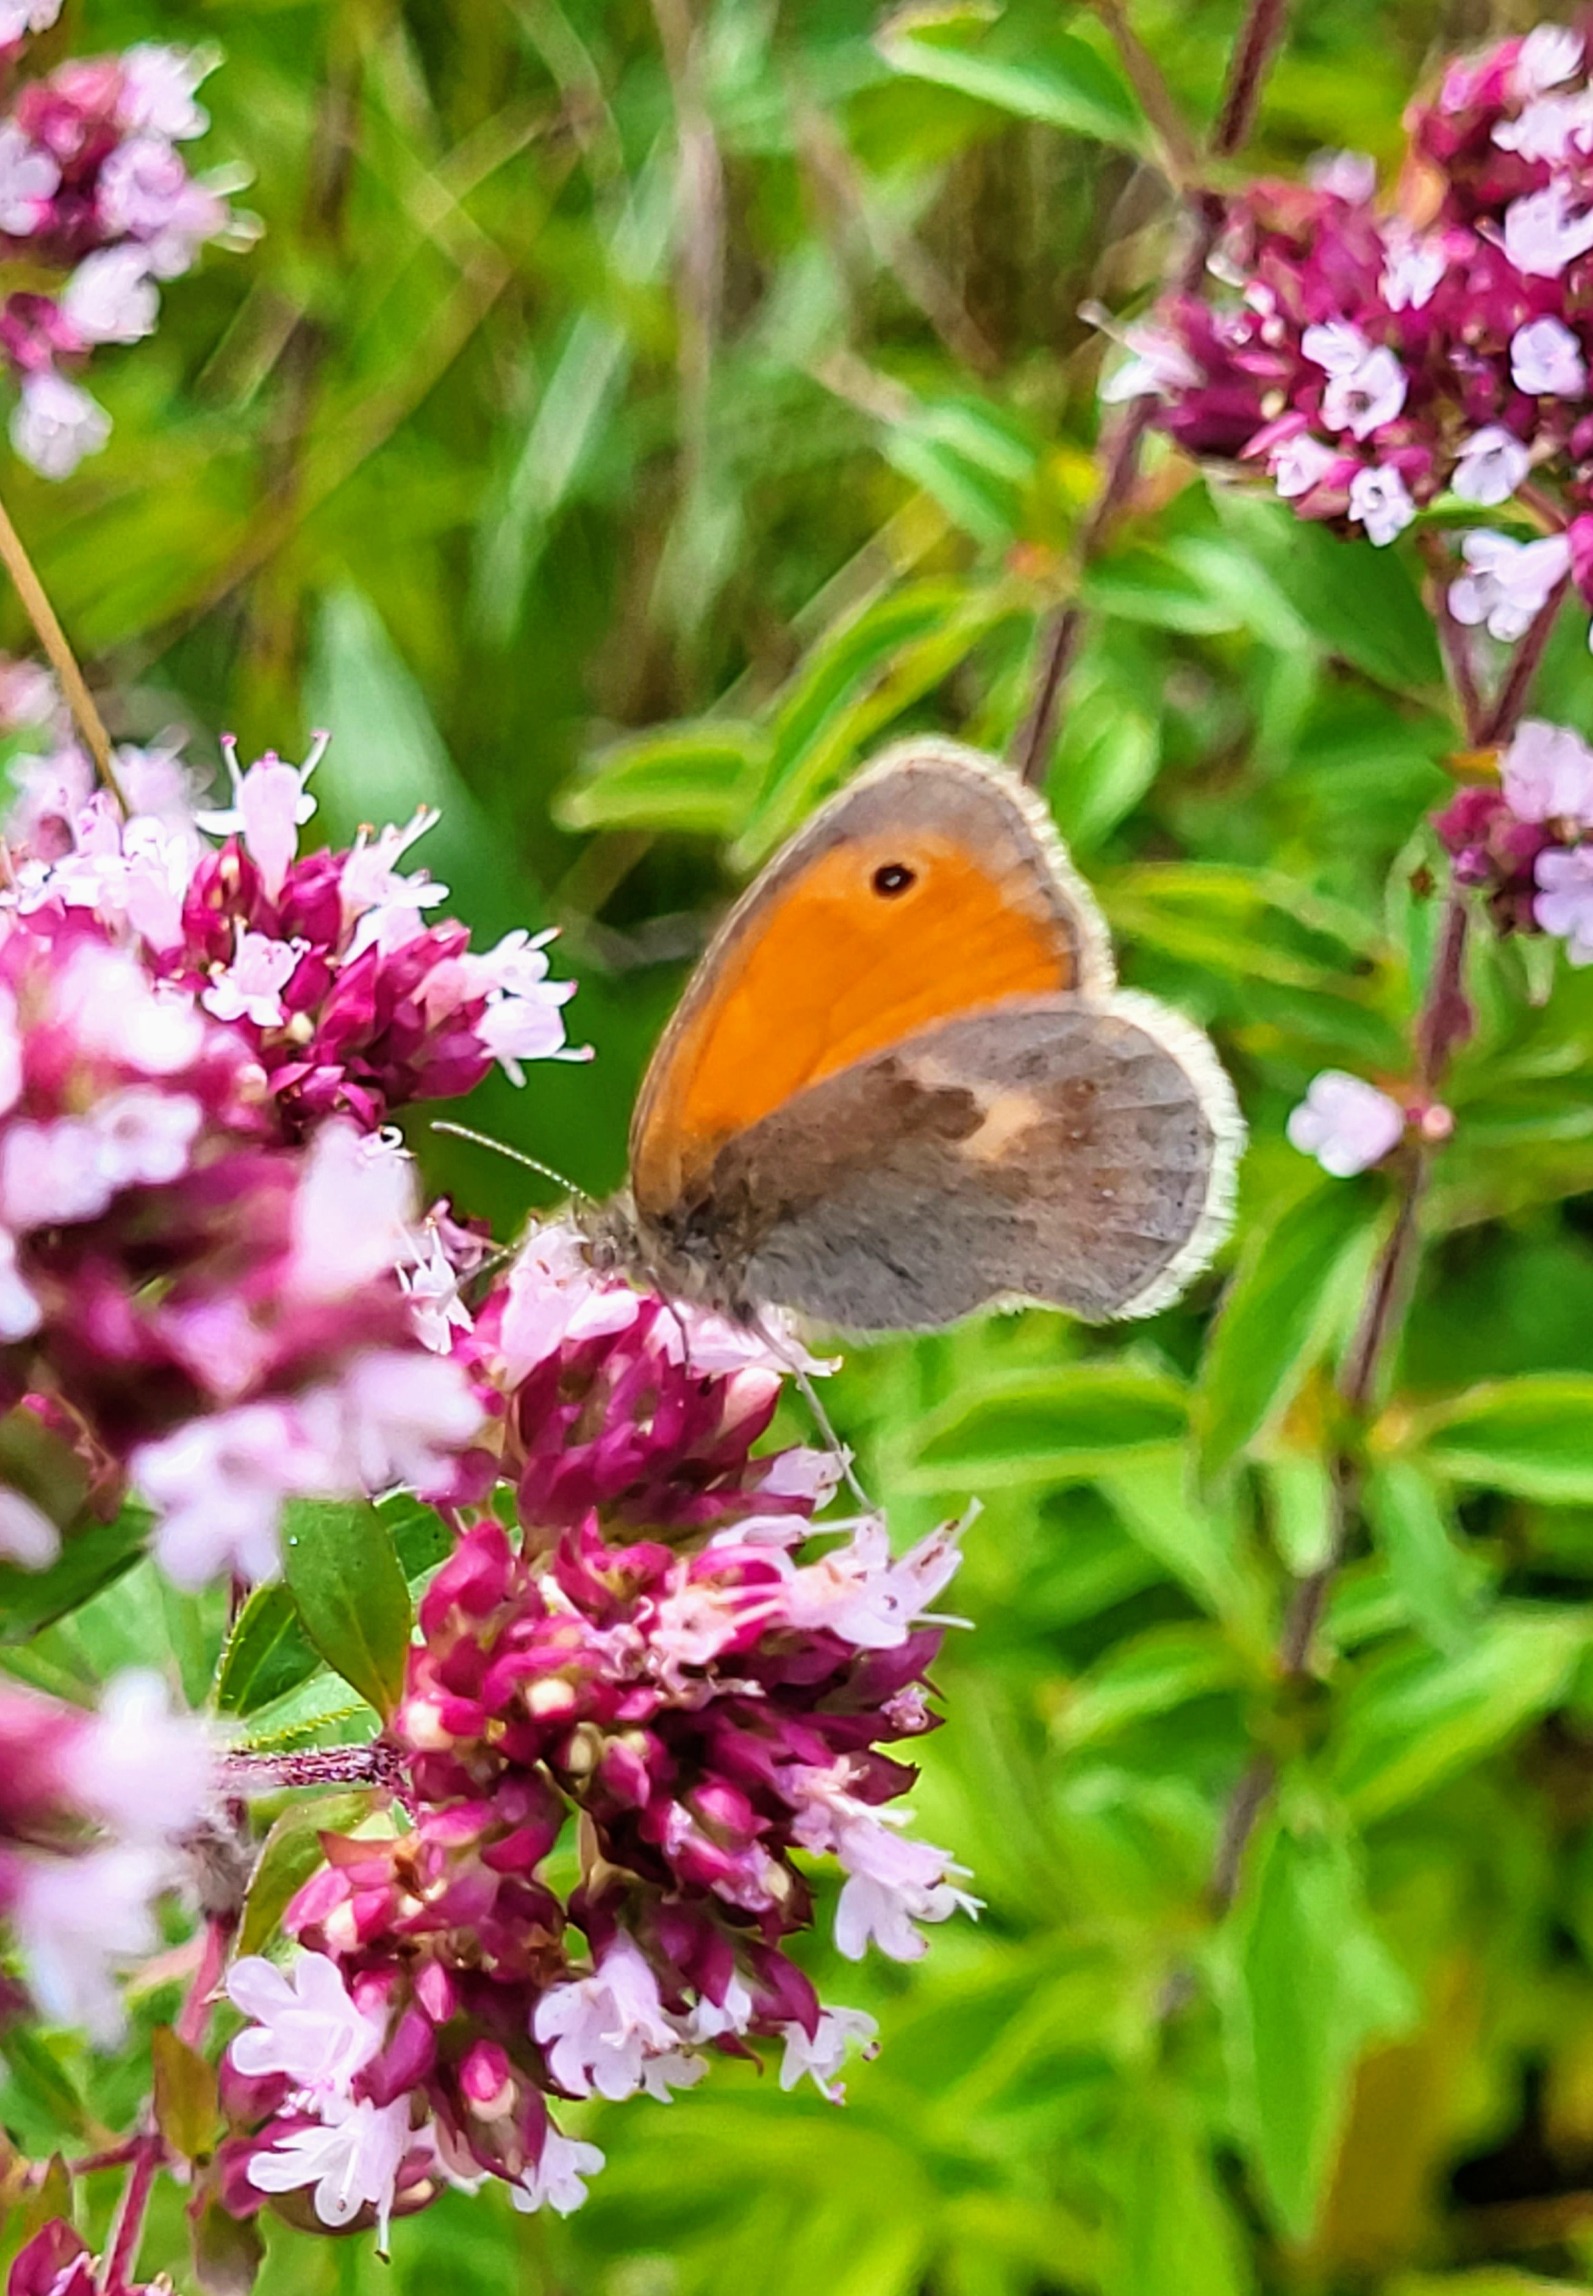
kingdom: Animalia
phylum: Arthropoda
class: Insecta
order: Lepidoptera
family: Nymphalidae
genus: Coenonympha
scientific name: Coenonympha pamphilus
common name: Okkergul randøje
